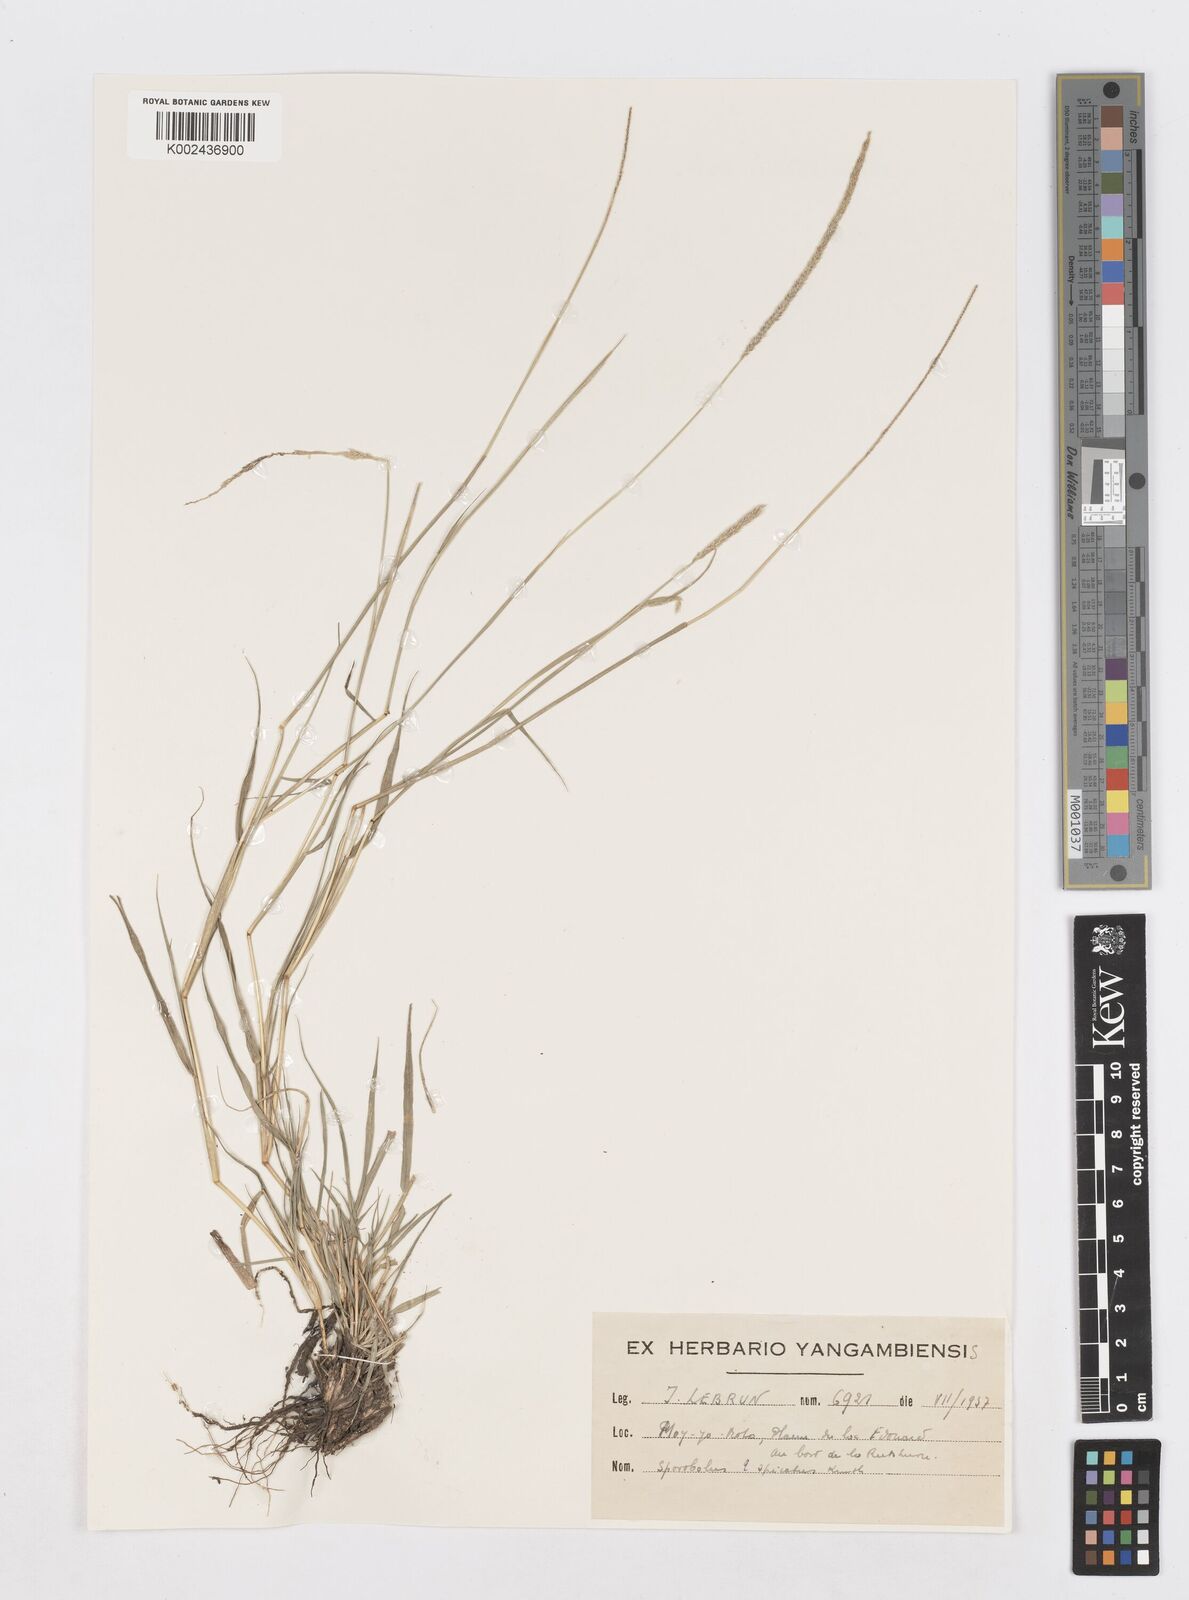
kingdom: Plantae
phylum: Tracheophyta
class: Liliopsida
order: Poales
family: Poaceae
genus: Sporobolus
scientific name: Sporobolus spicatus
